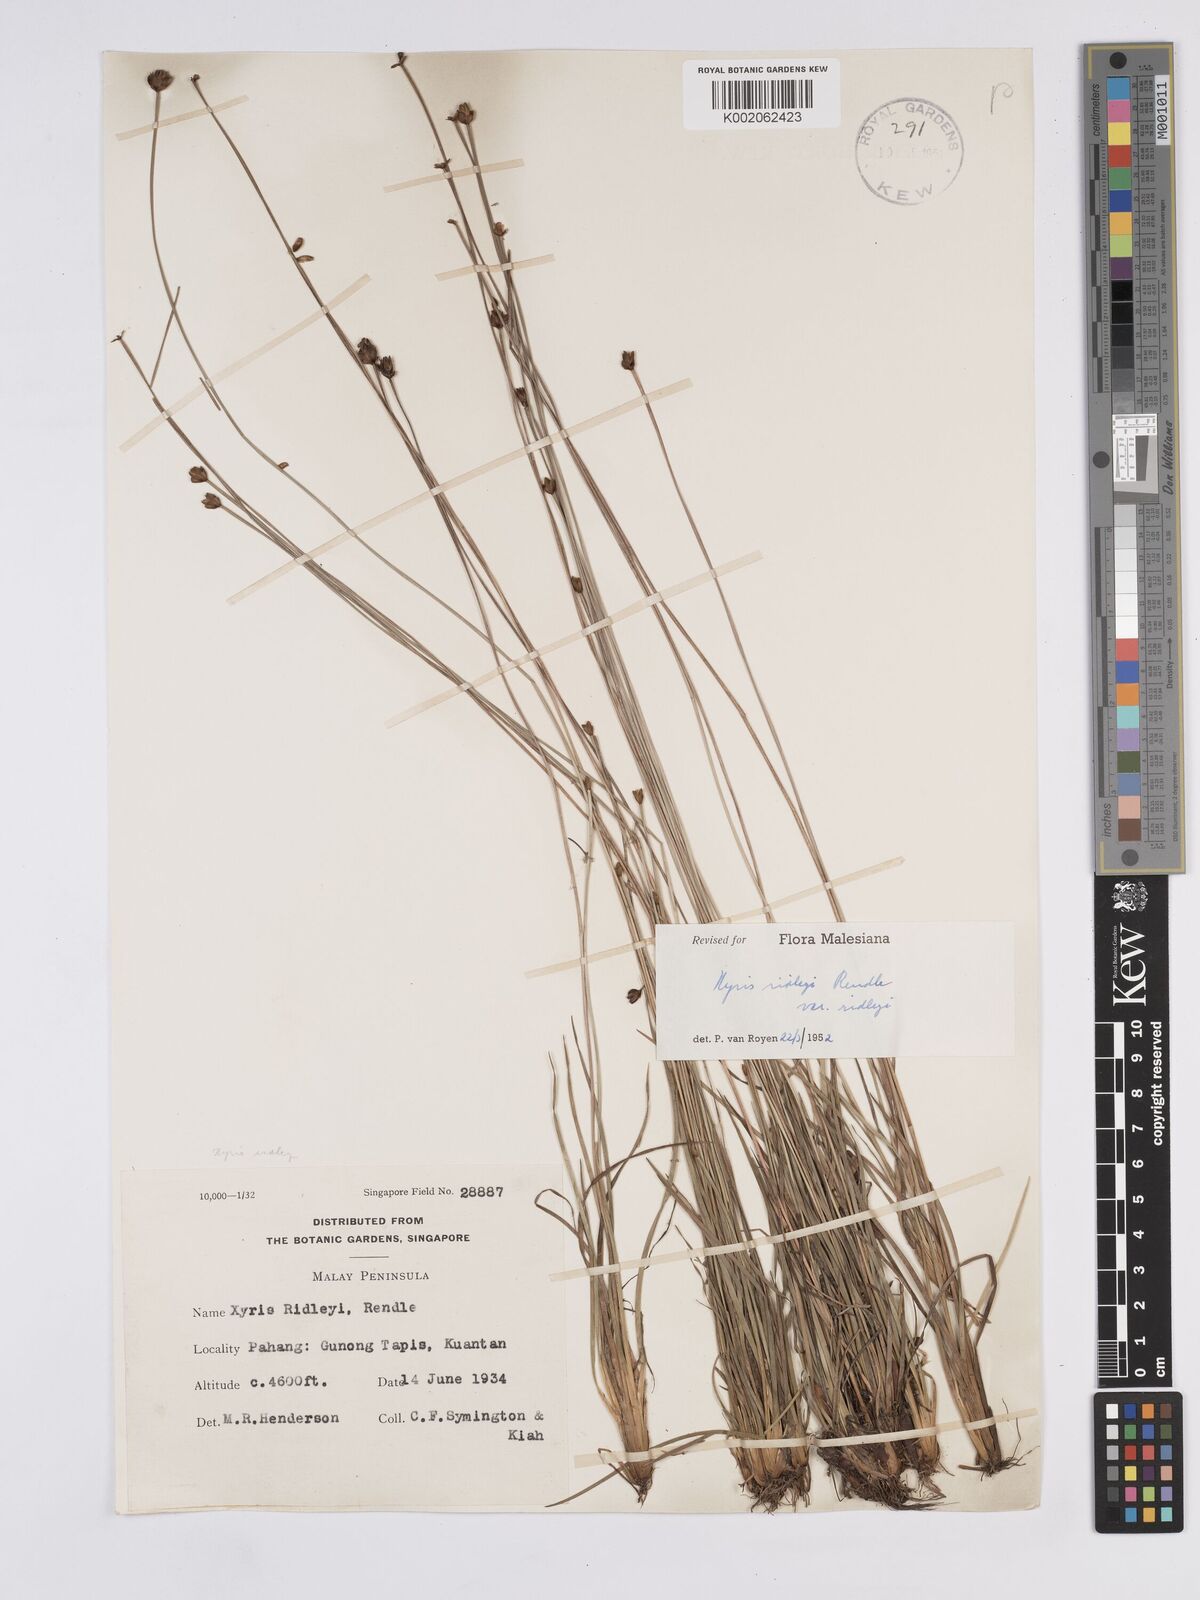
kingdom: Plantae
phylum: Tracheophyta
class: Liliopsida
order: Poales
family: Xyridaceae
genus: Xyris
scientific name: Xyris bancana
